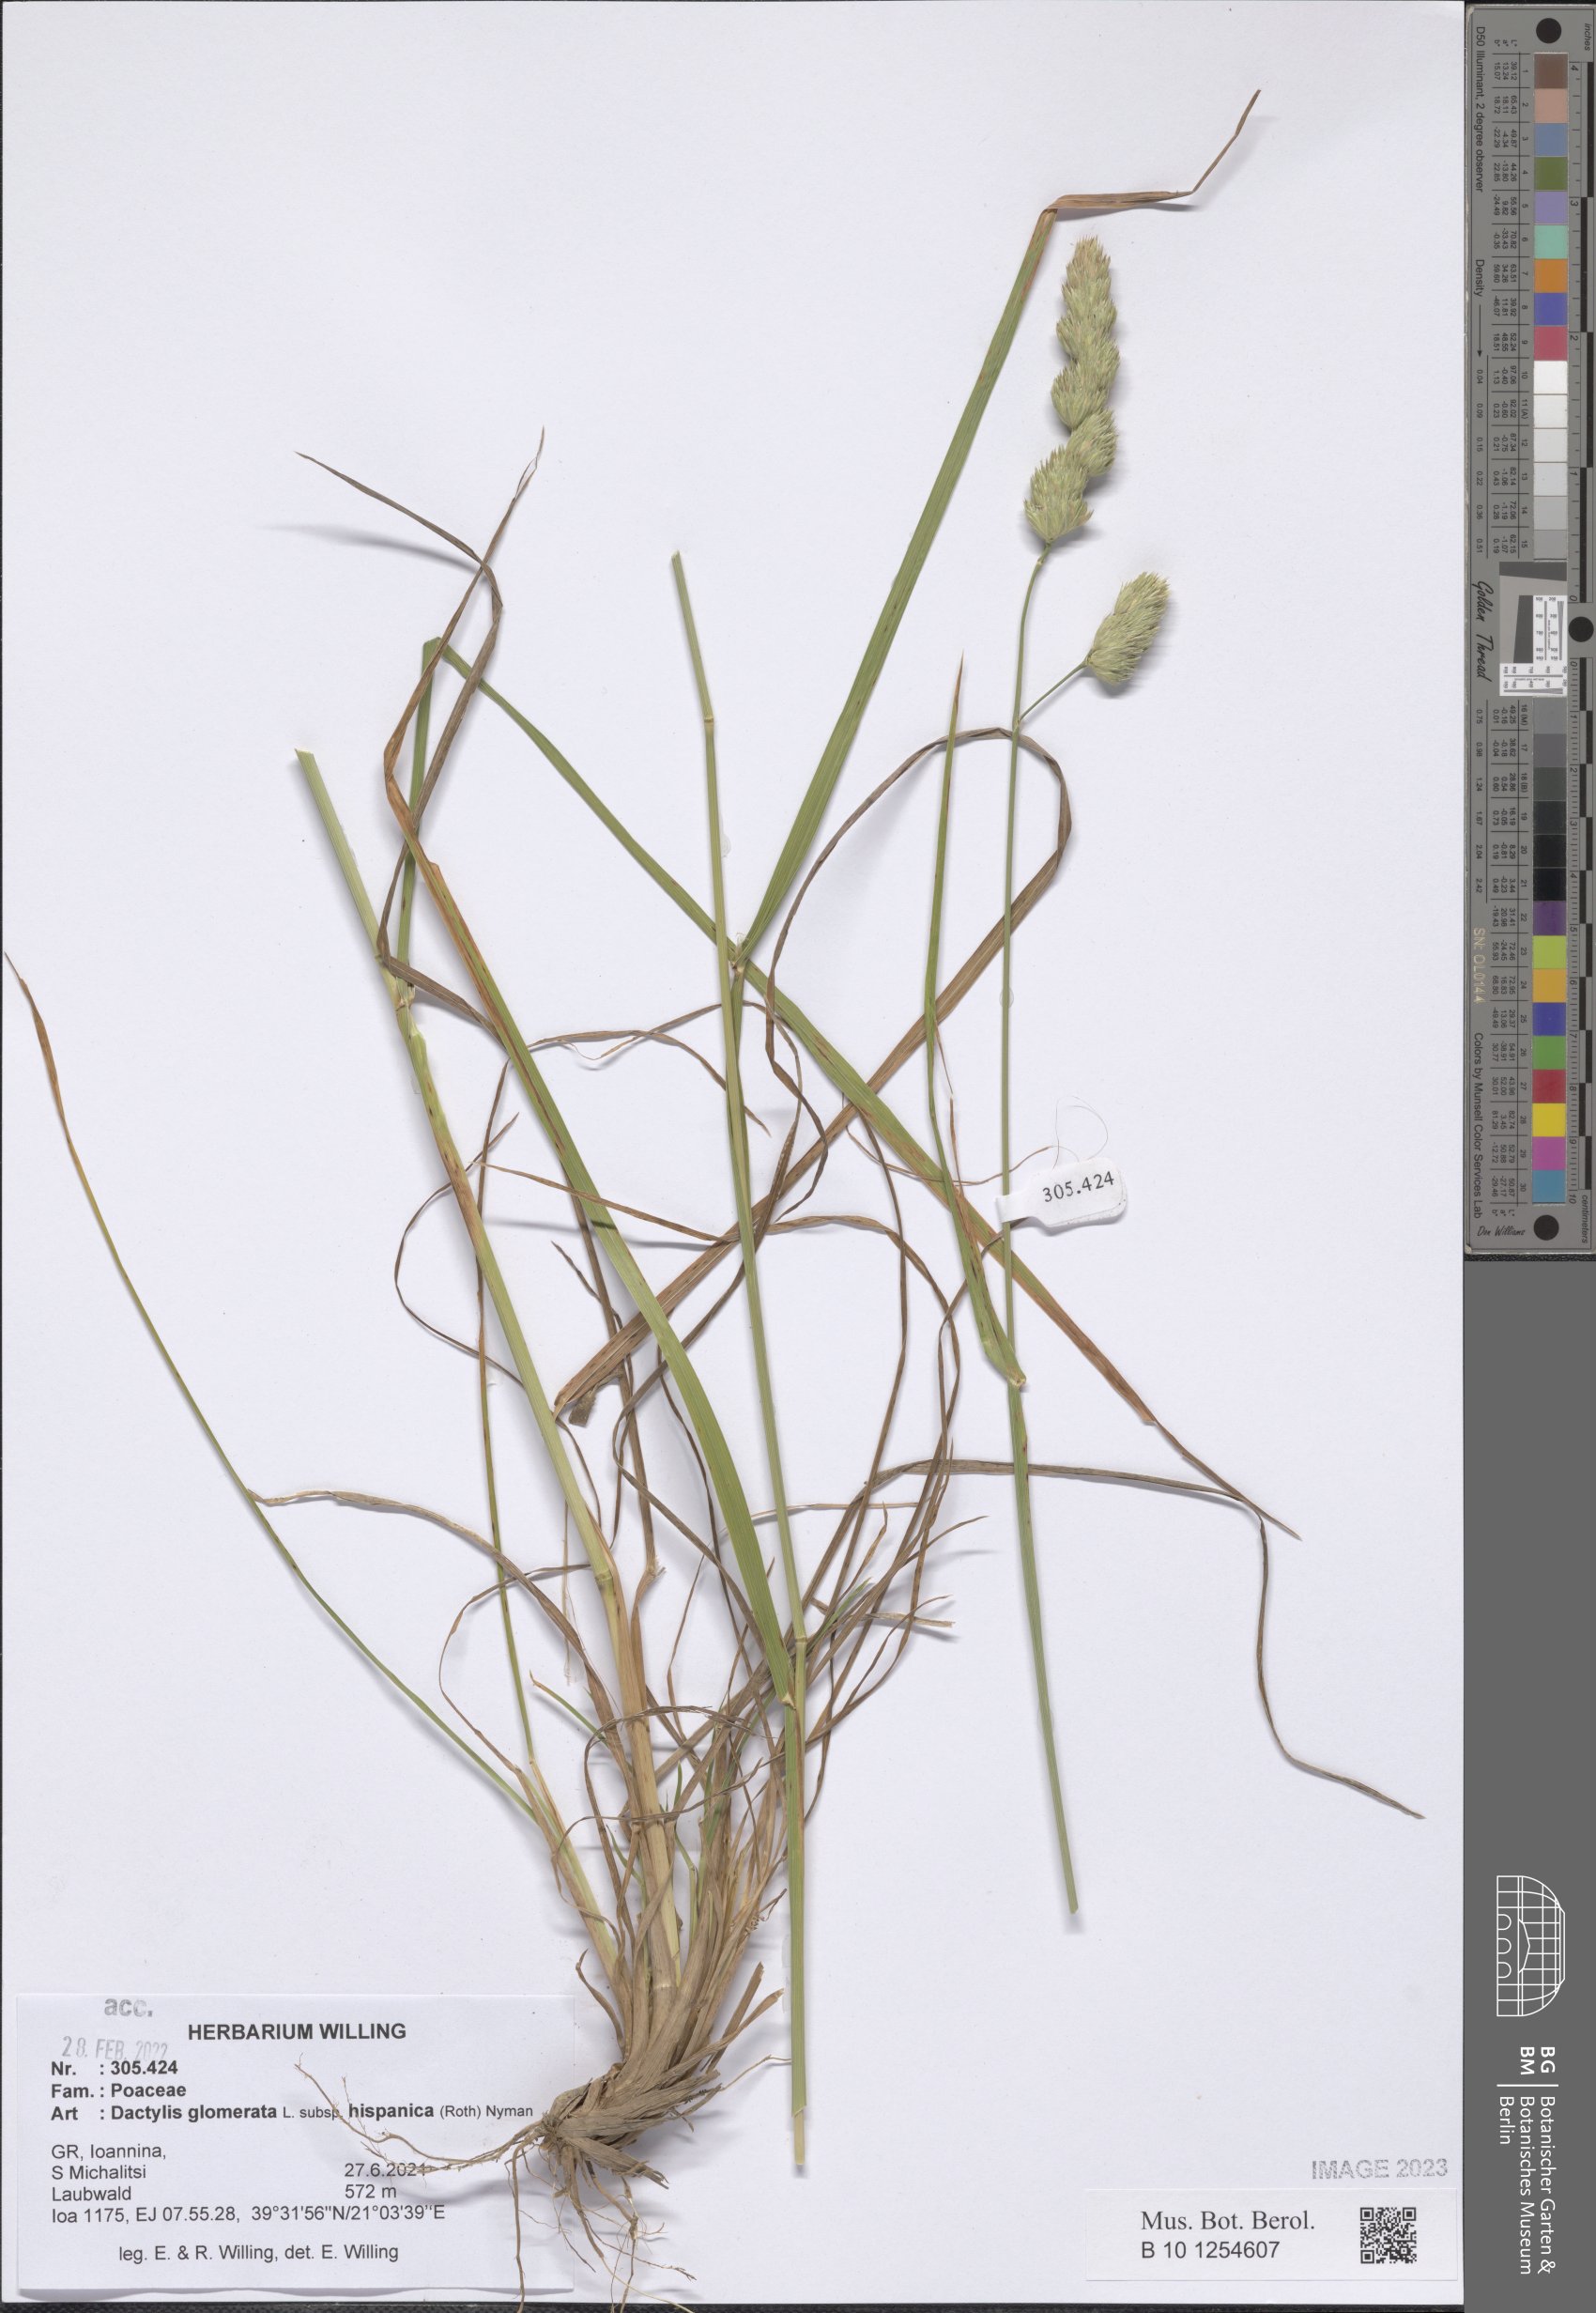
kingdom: Plantae
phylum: Tracheophyta
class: Liliopsida
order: Poales
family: Poaceae
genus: Dactylis
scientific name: Dactylis glomerata
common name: Orchardgrass
